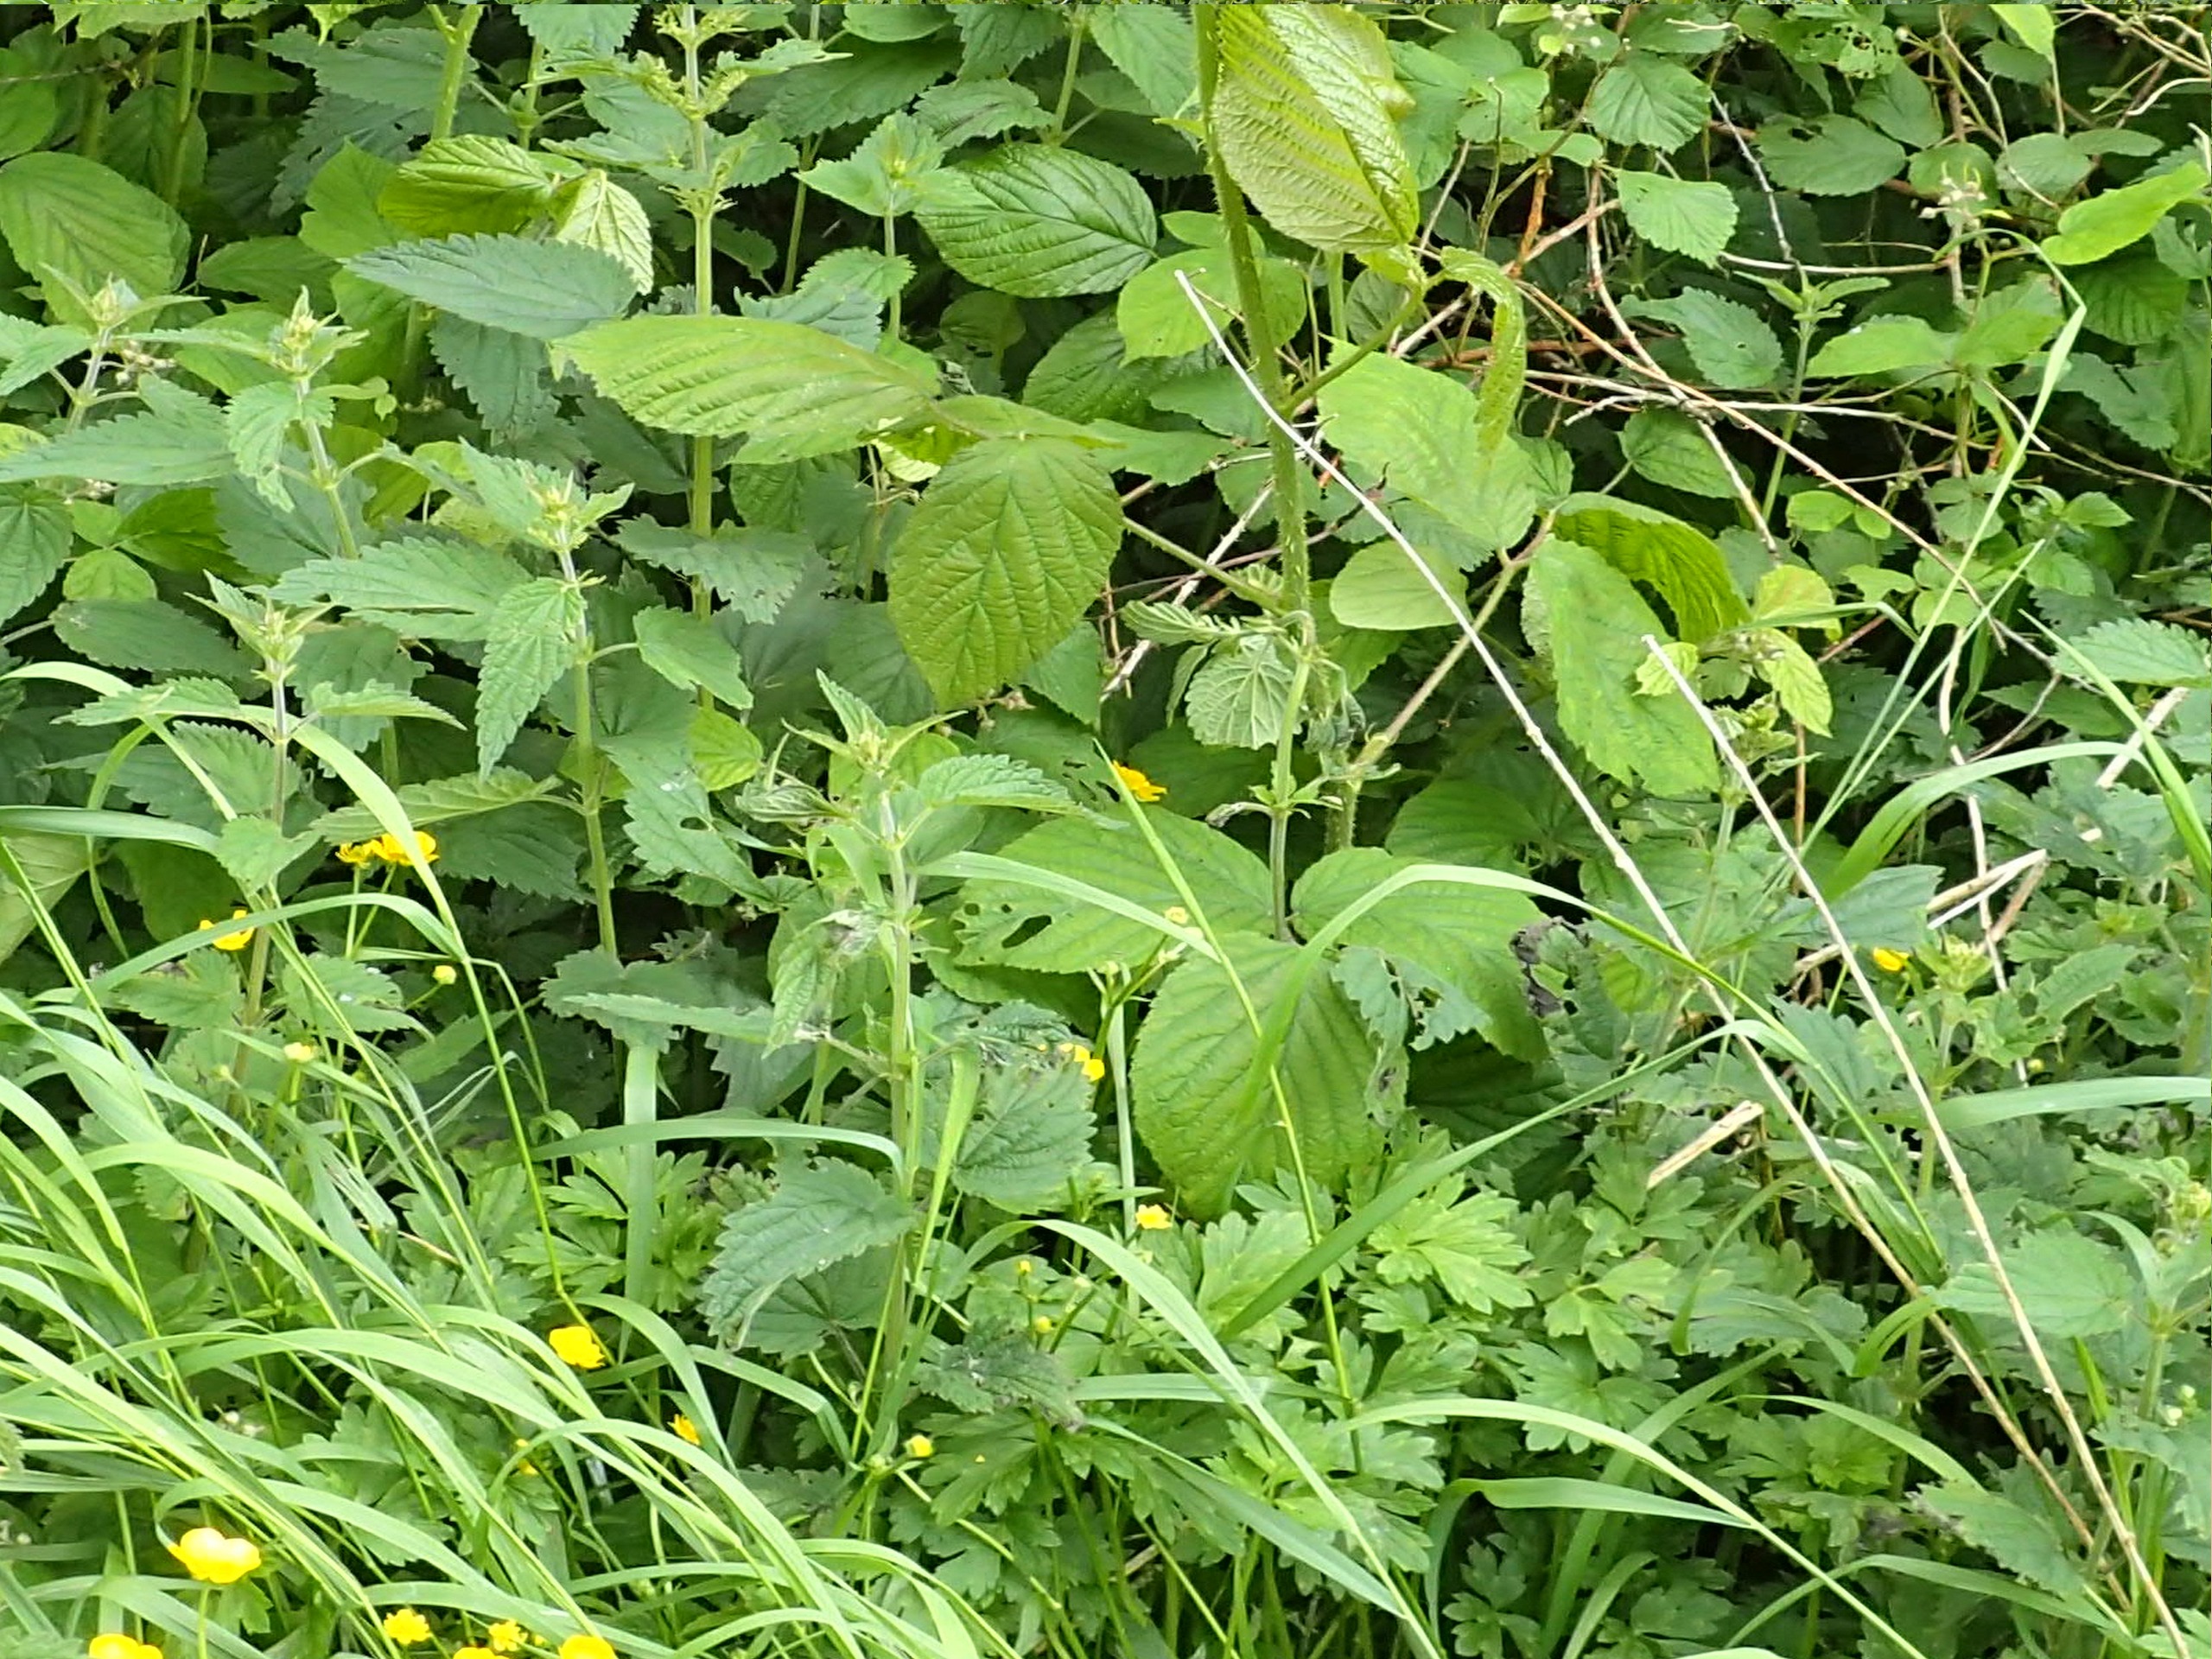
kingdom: Plantae
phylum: Tracheophyta
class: Magnoliopsida
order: Rosales
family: Rosaceae
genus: Rubus
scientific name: Rubus nigricans
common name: Trebladet brombær
